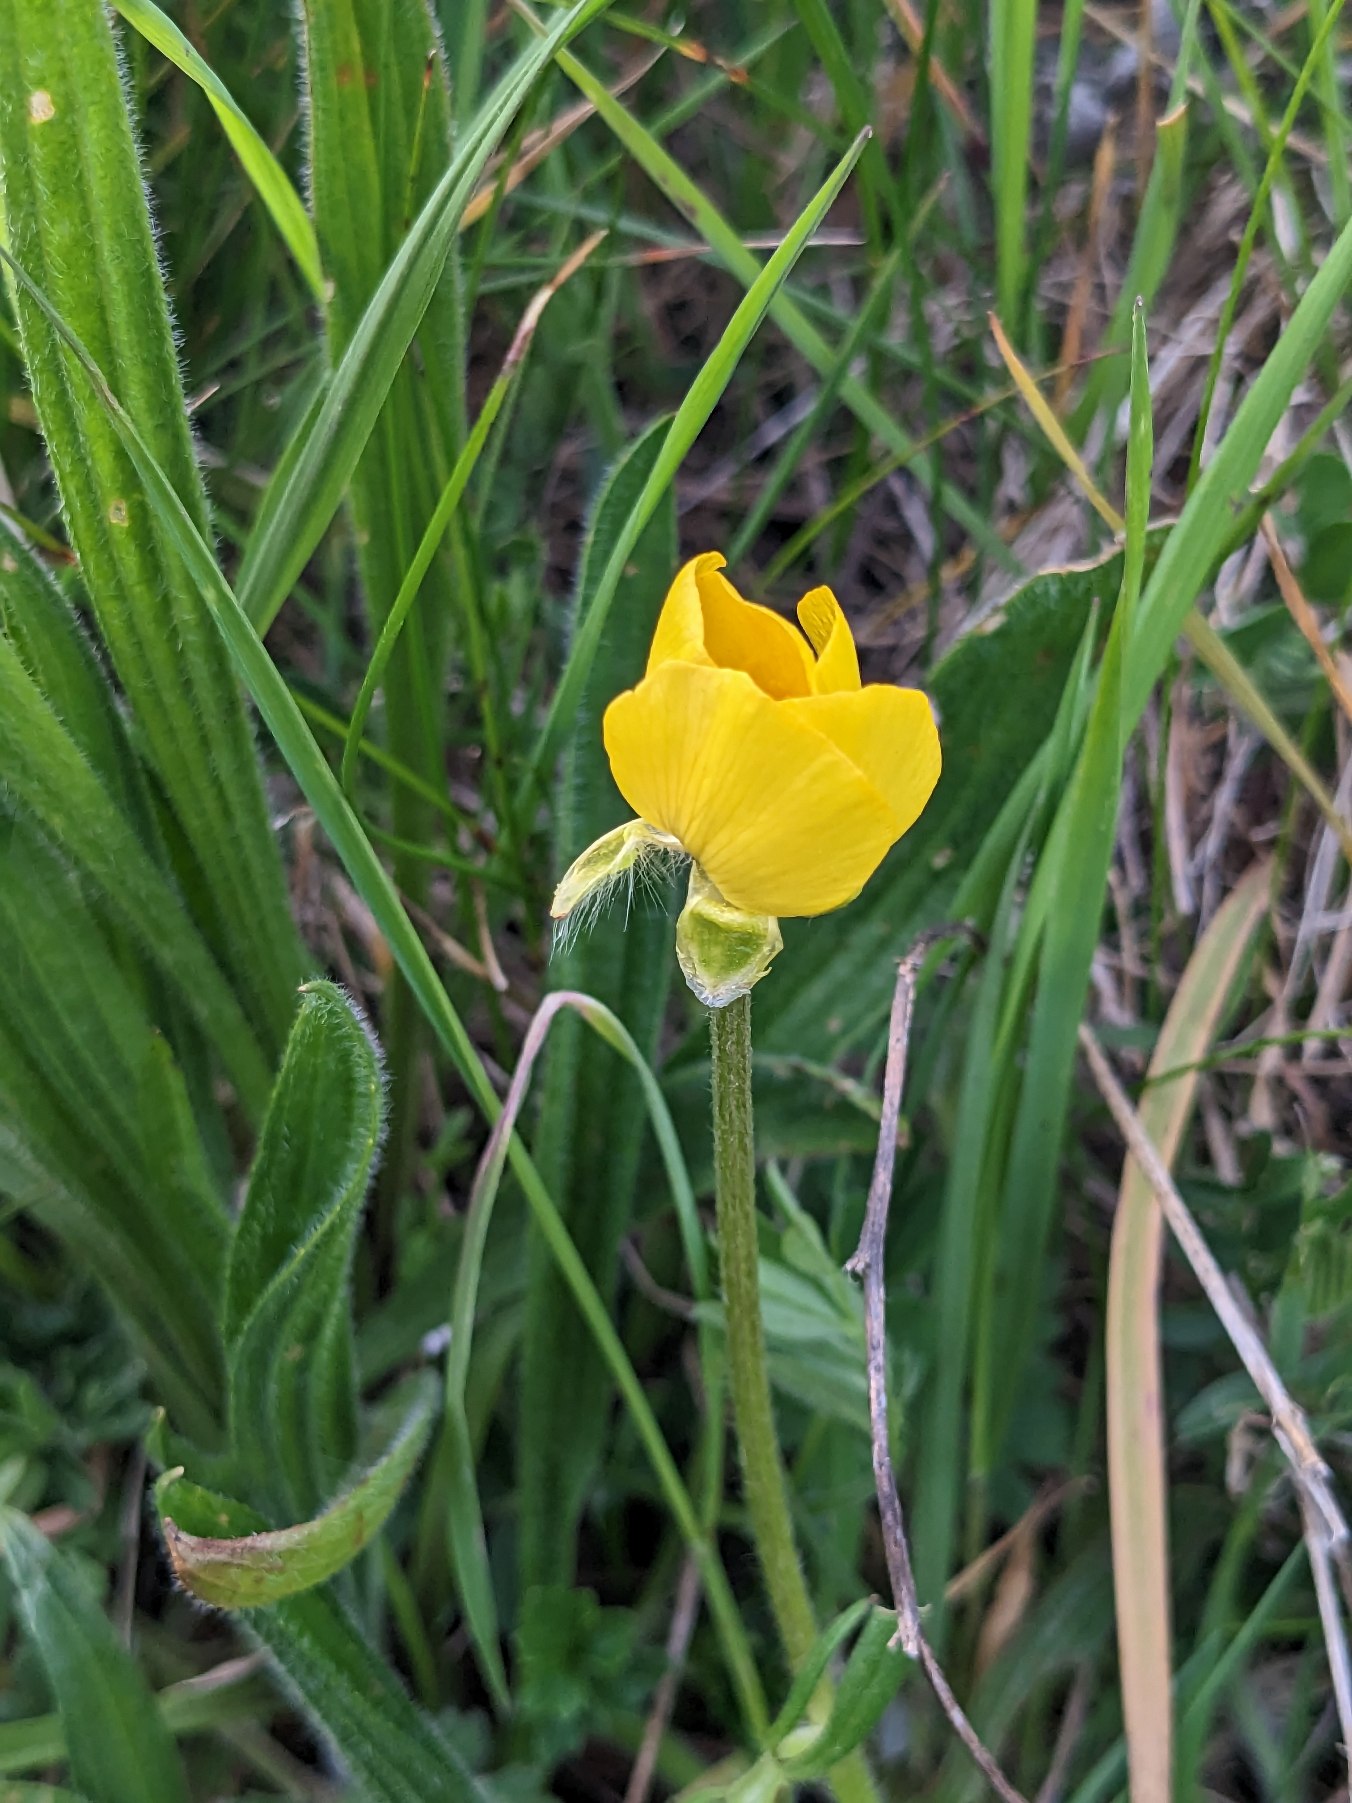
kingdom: Plantae
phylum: Tracheophyta
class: Magnoliopsida
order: Ranunculales
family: Ranunculaceae
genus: Ranunculus
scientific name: Ranunculus bulbosus
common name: Knold-ranunkel
